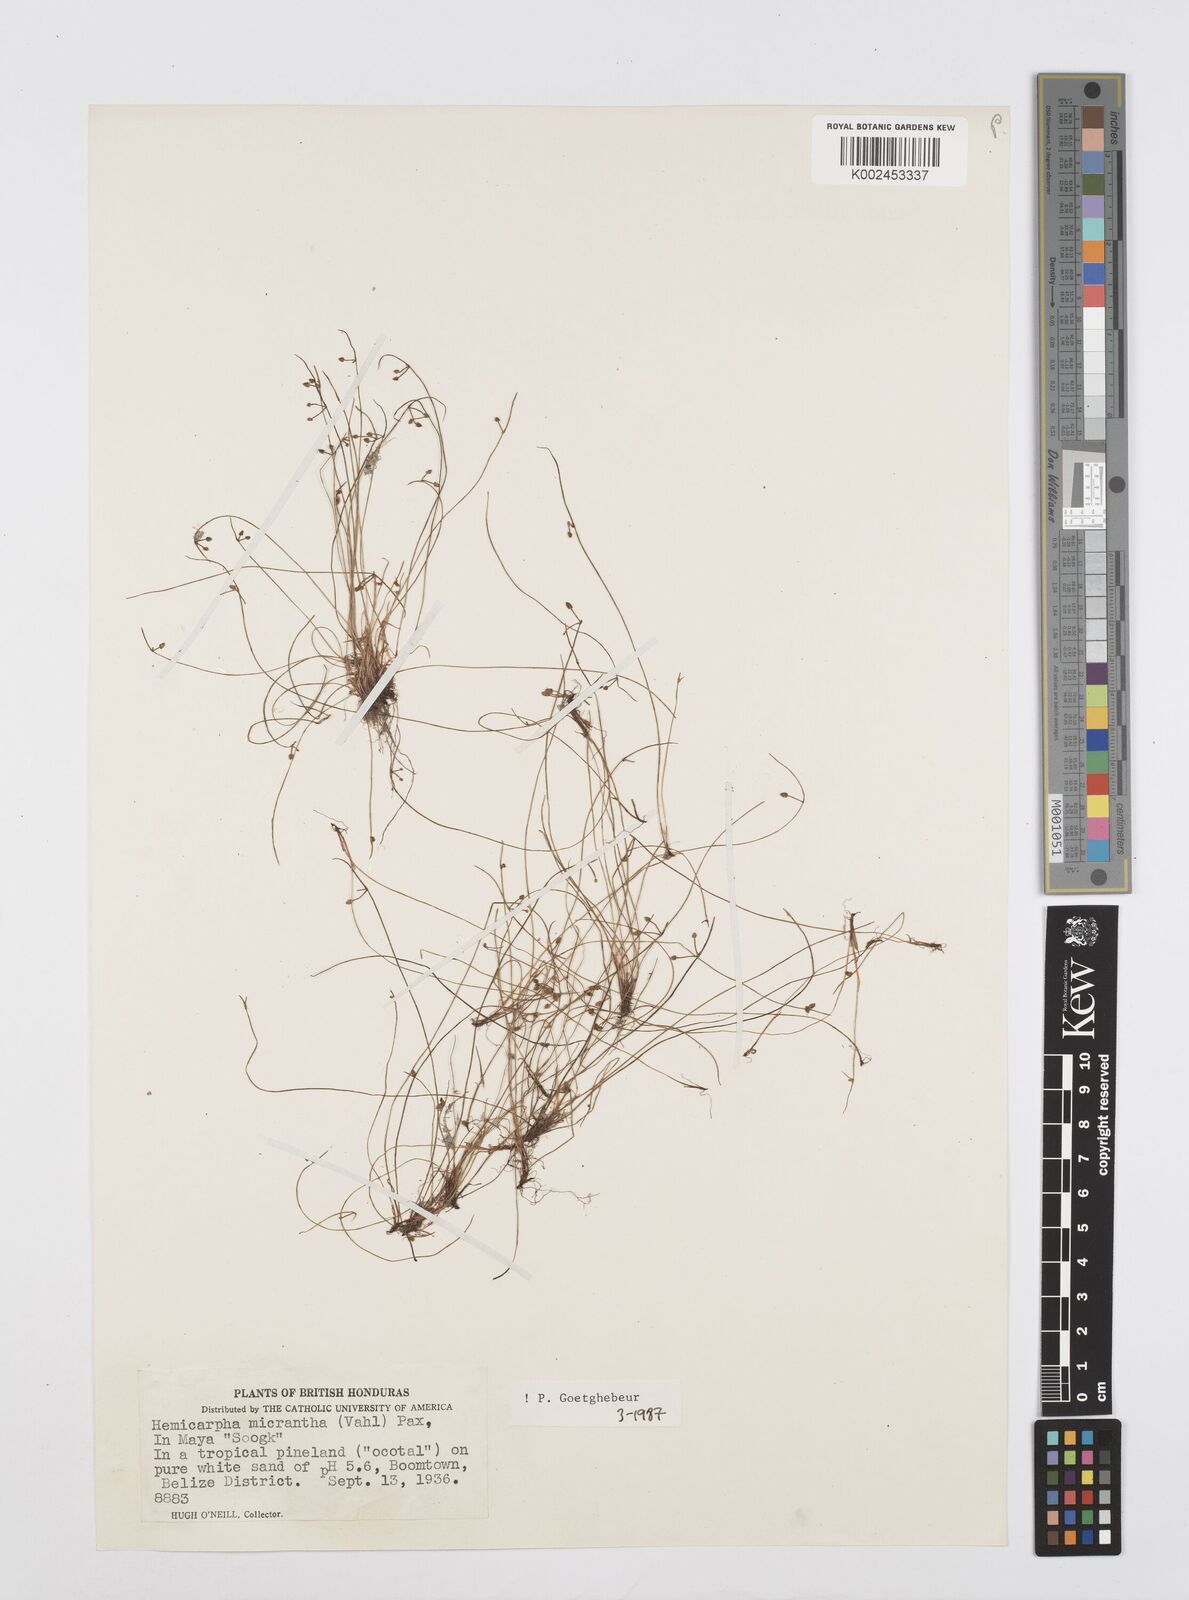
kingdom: Plantae
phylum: Tracheophyta
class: Liliopsida
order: Poales
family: Cyperaceae
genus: Cyperus
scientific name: Cyperus
